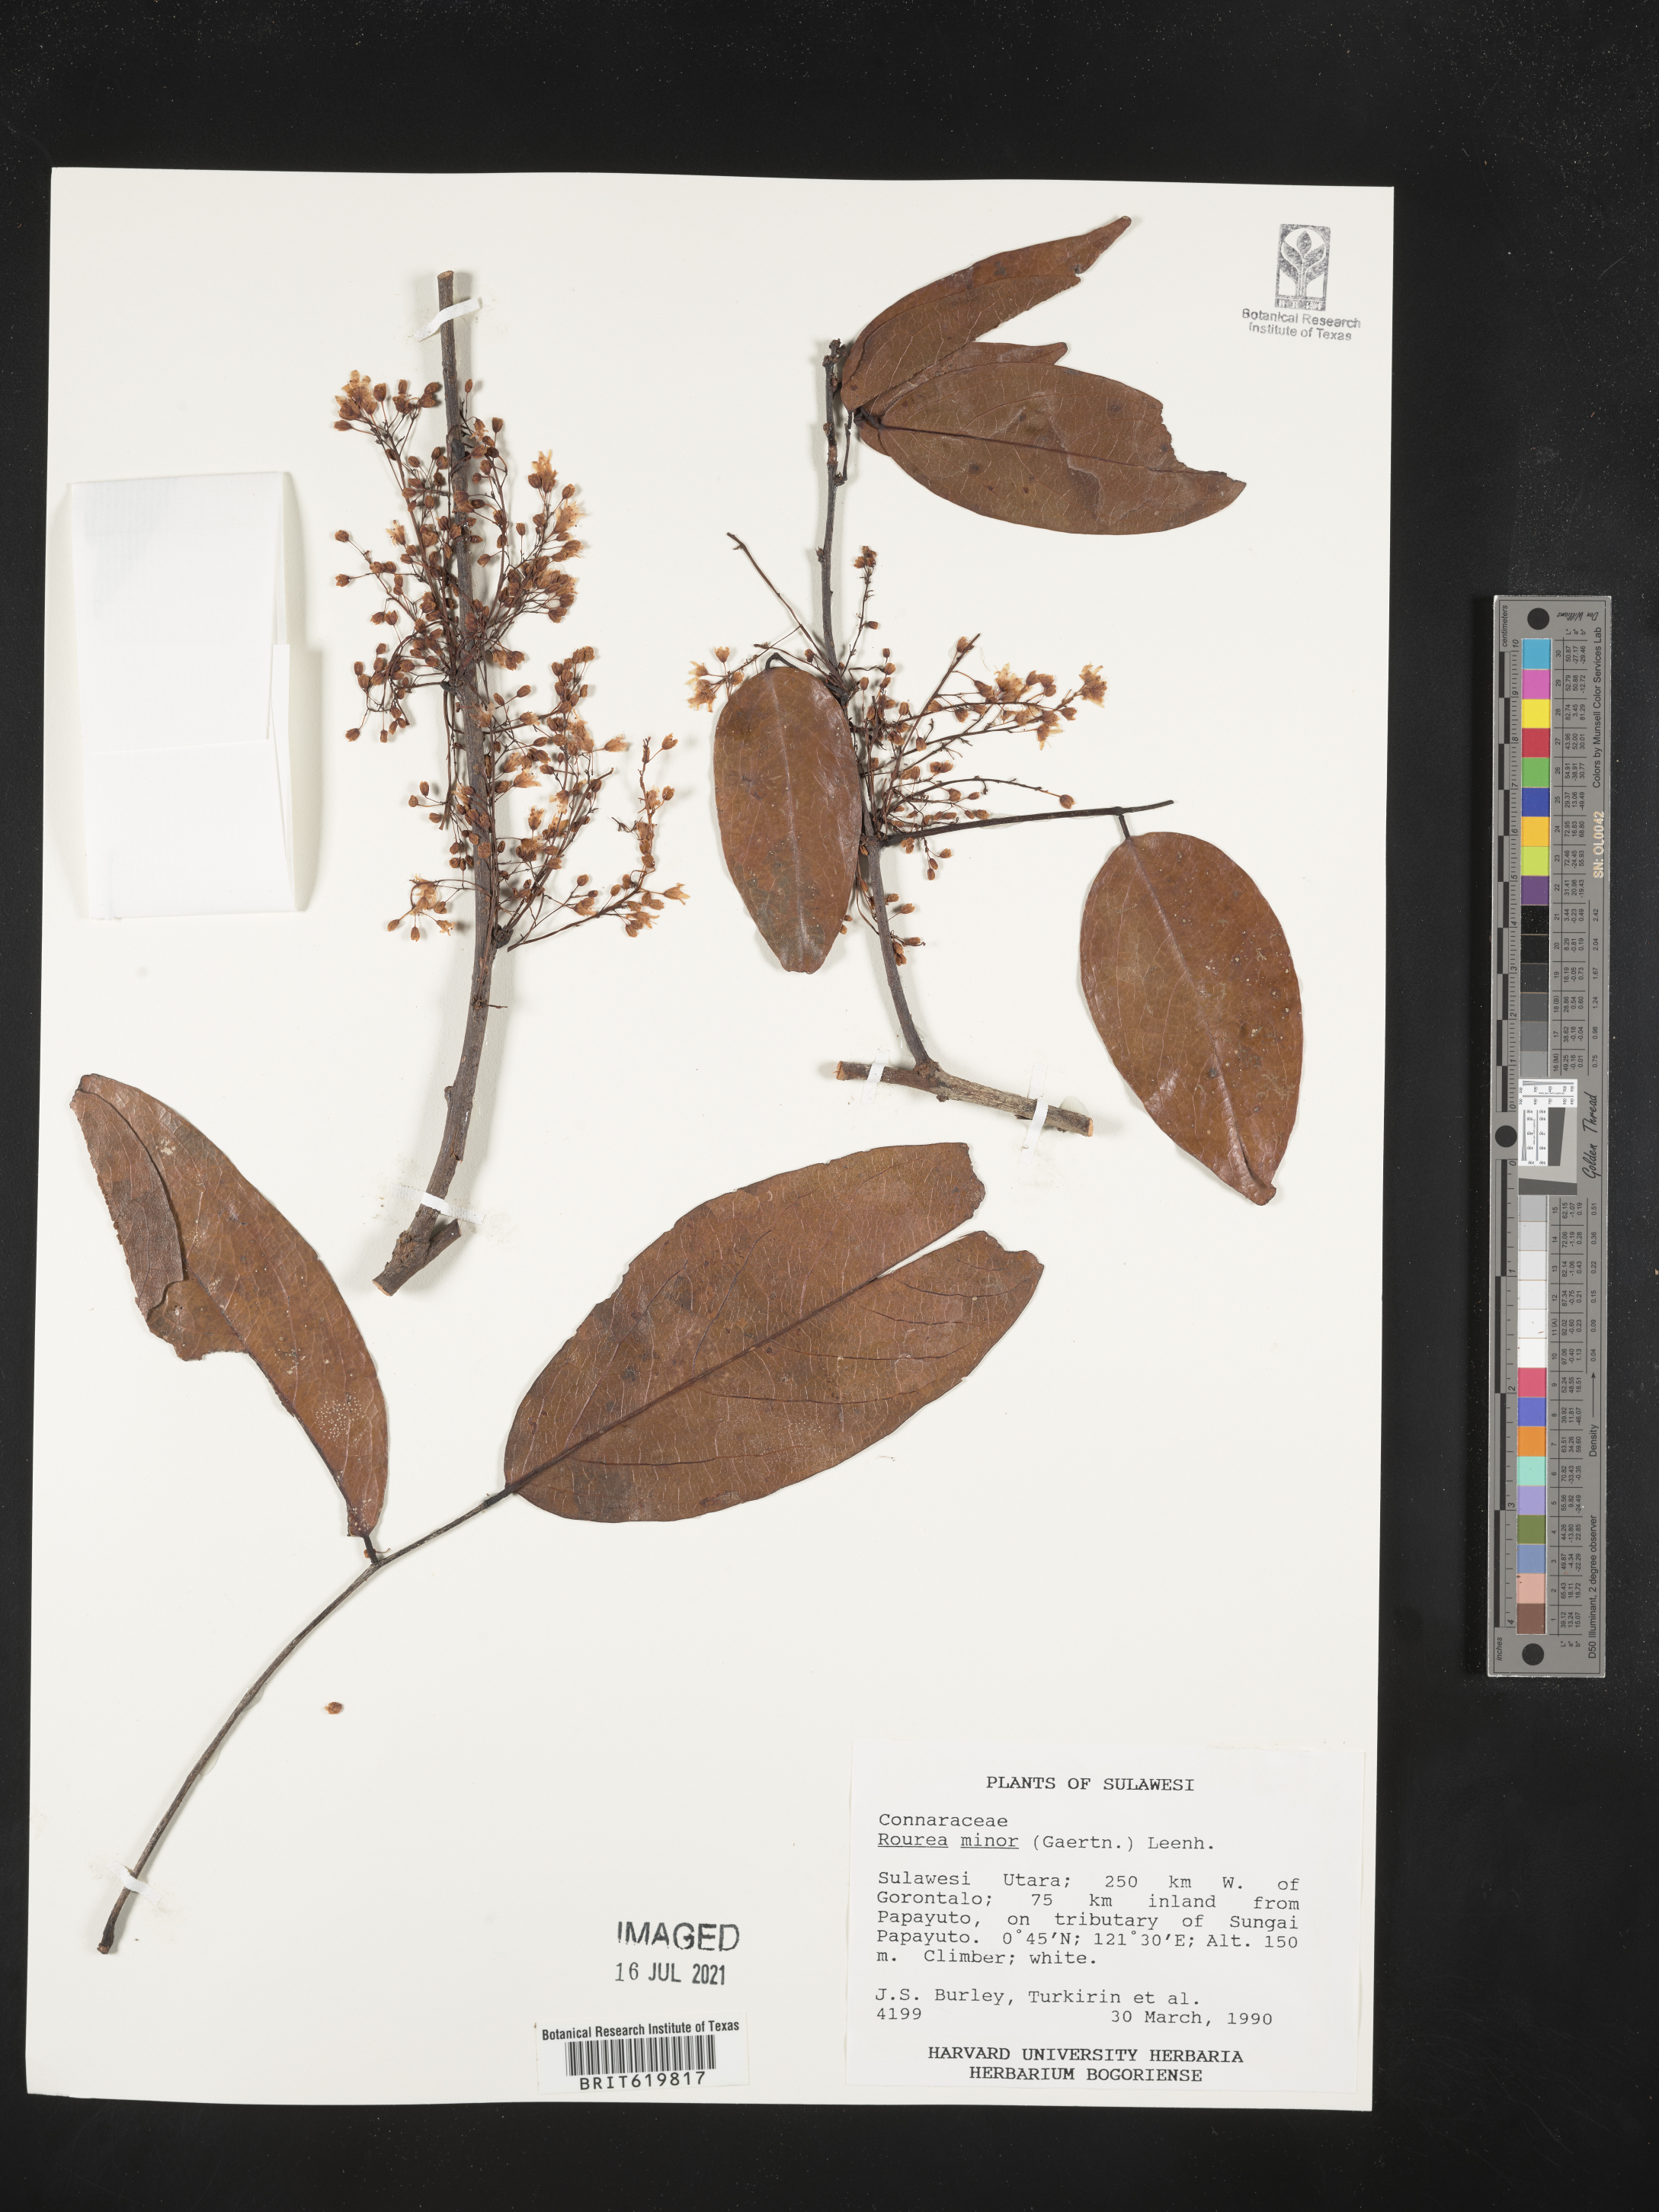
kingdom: Plantae
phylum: Tracheophyta
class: Magnoliopsida
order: Oxalidales
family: Connaraceae
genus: Rourea
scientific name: Rourea minor
